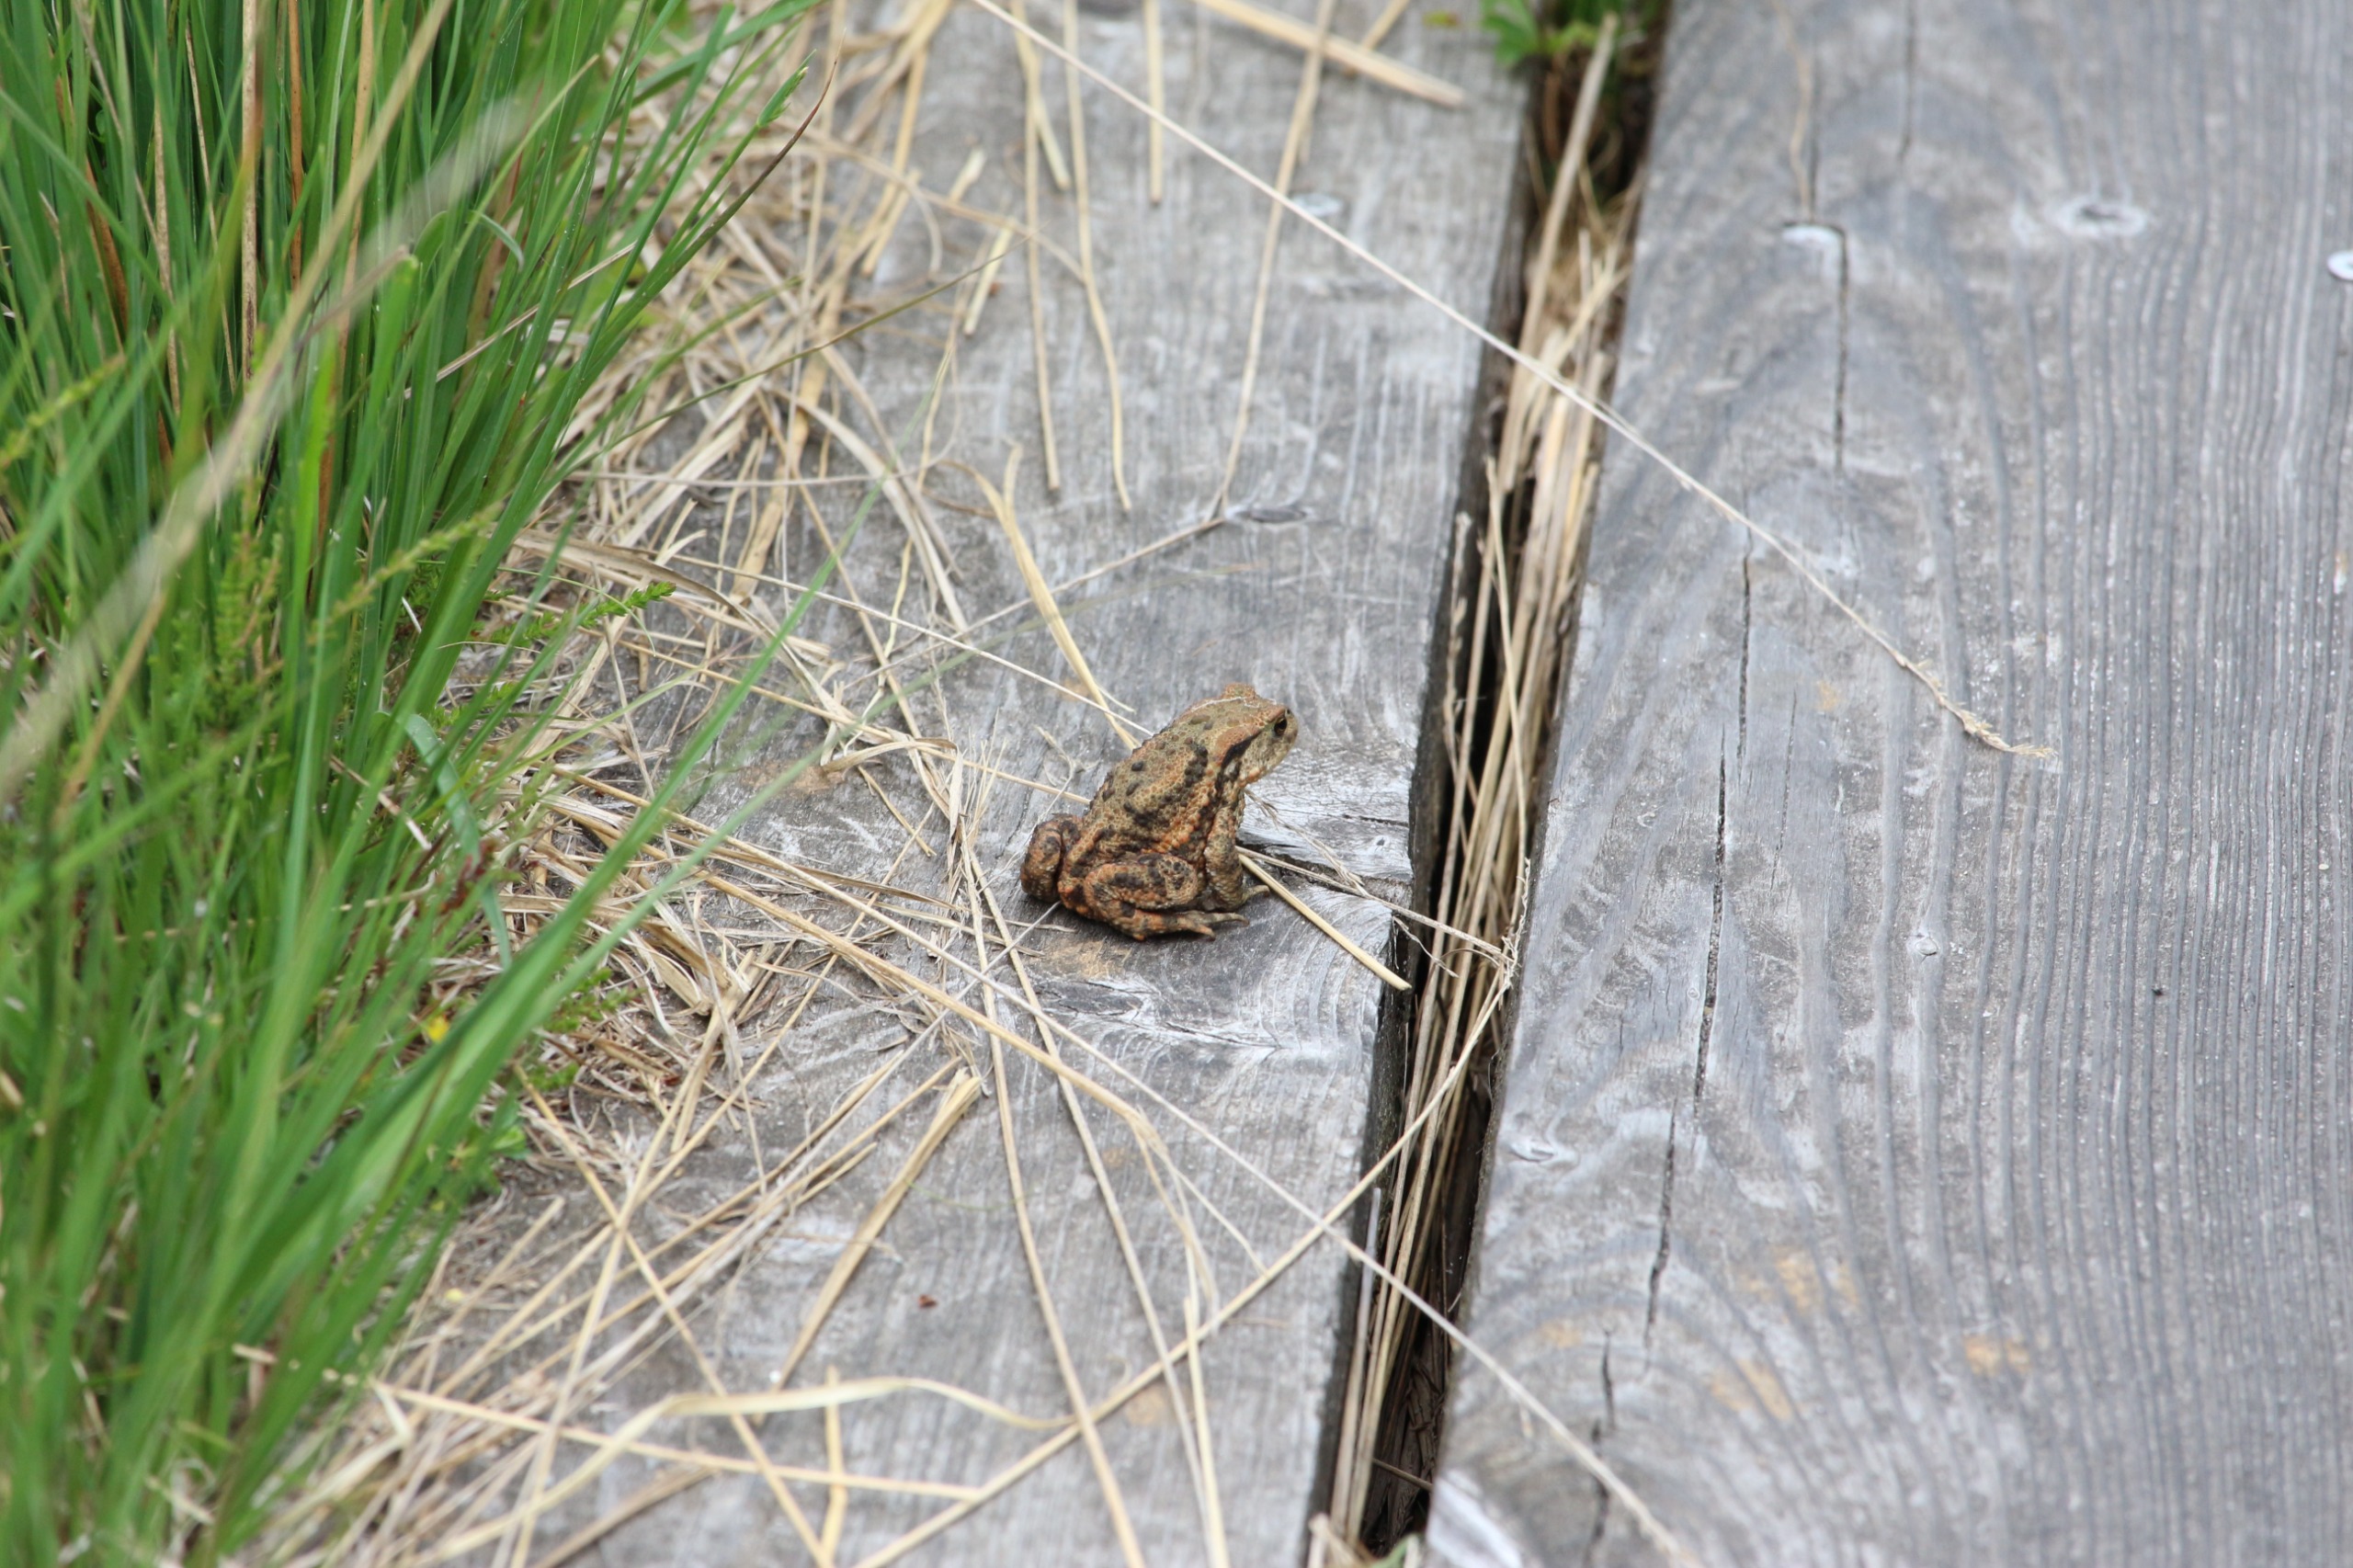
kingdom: Animalia
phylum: Chordata
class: Amphibia
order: Anura
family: Bufonidae
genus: Bufo
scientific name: Bufo bufo
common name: Skrubtudse
